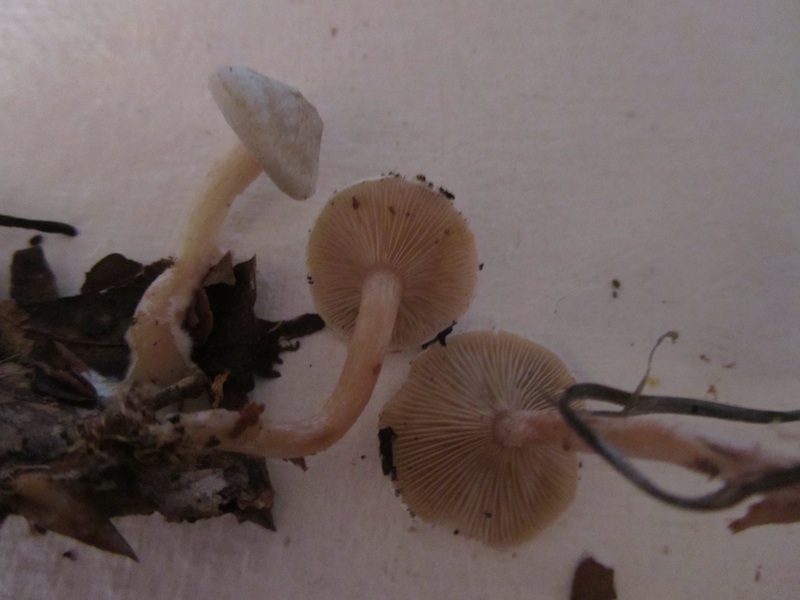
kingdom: Fungi
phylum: Basidiomycota
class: Agaricomycetes
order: Agaricales
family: Tricholomataceae
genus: Ripartites
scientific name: Ripartites tricholoma
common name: almindelig skæghat
